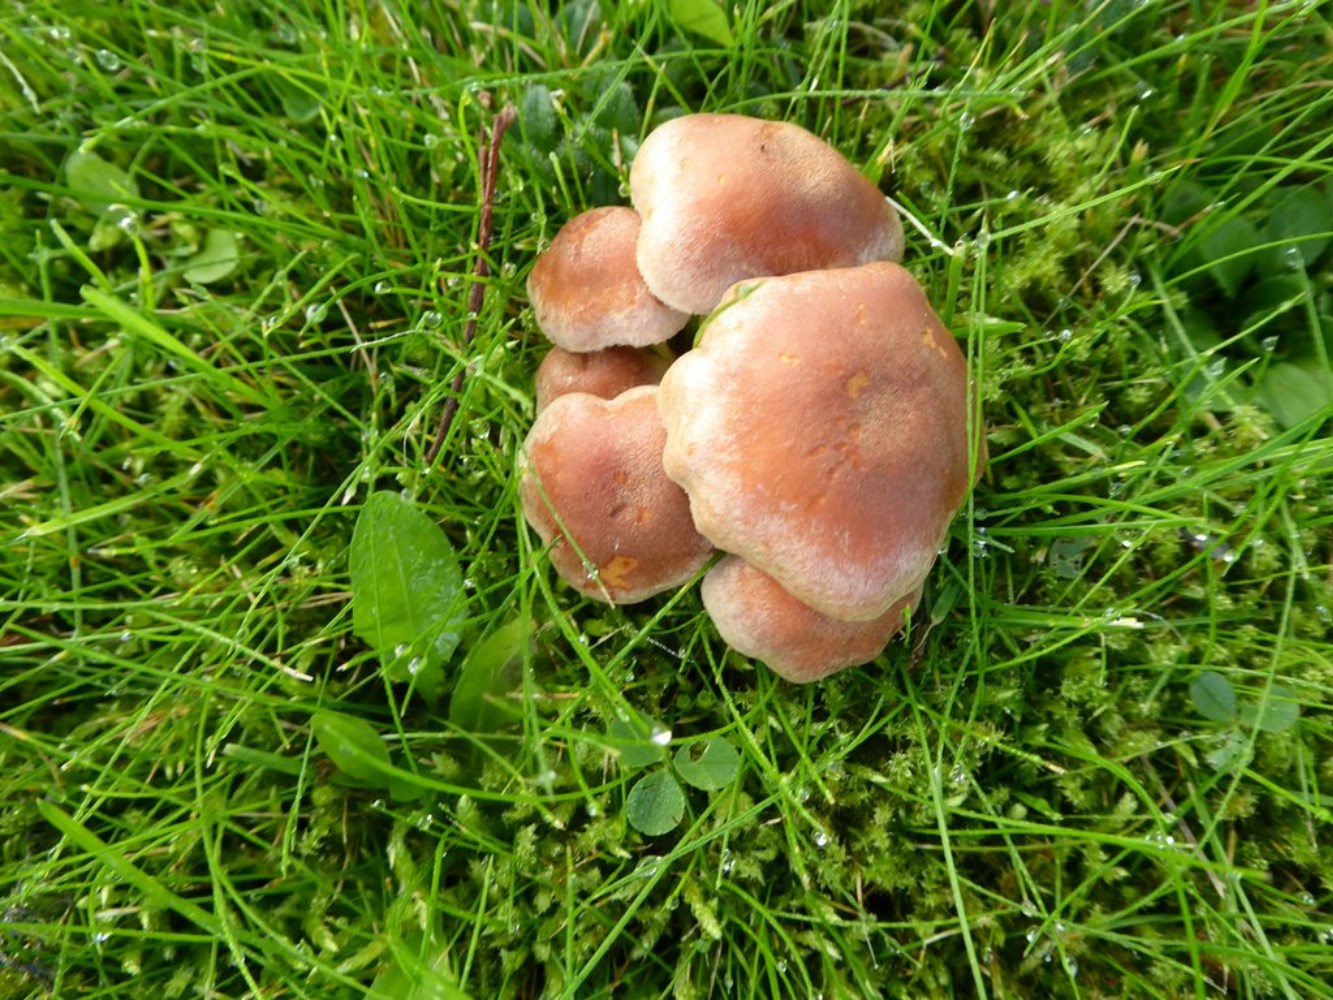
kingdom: Fungi
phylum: Basidiomycota
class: Agaricomycetes
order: Agaricales
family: Strophariaceae
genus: Hypholoma
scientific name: Hypholoma
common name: svovlhat
